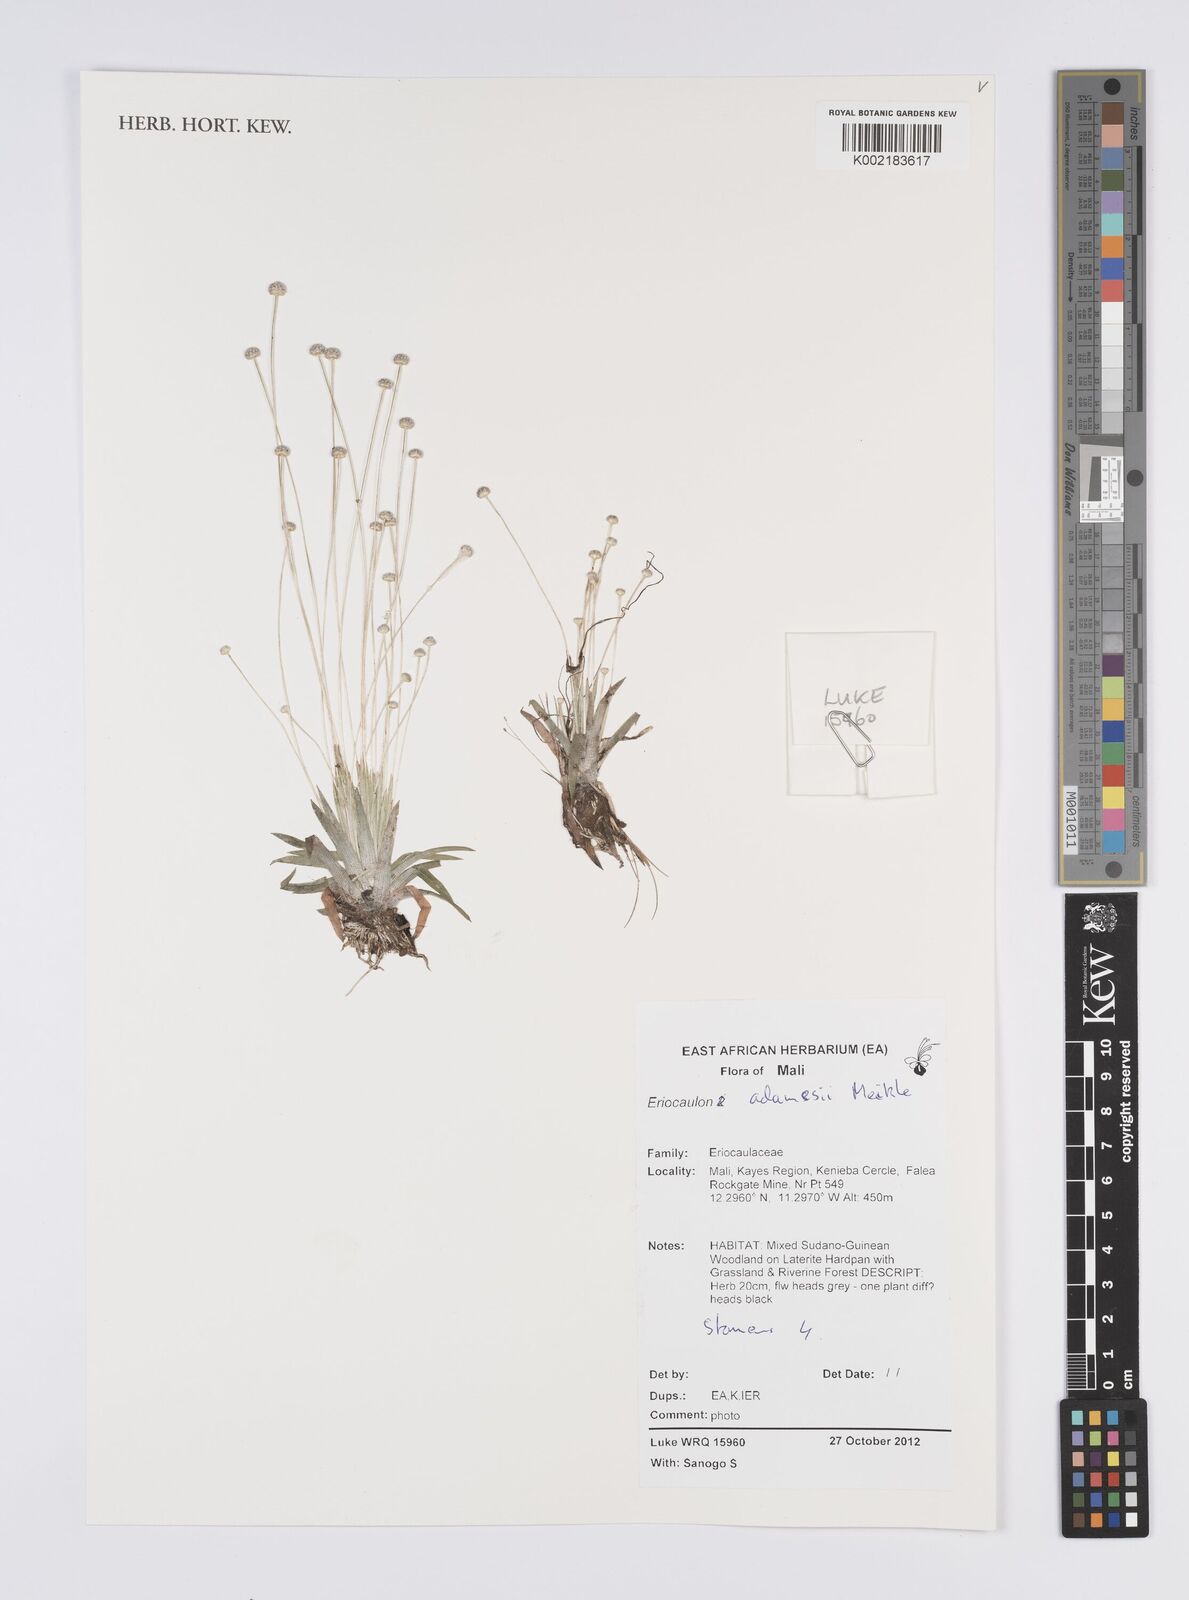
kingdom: Plantae
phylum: Tracheophyta
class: Liliopsida
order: Poales
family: Eriocaulaceae
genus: Eriocaulon
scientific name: Eriocaulon adamesii
